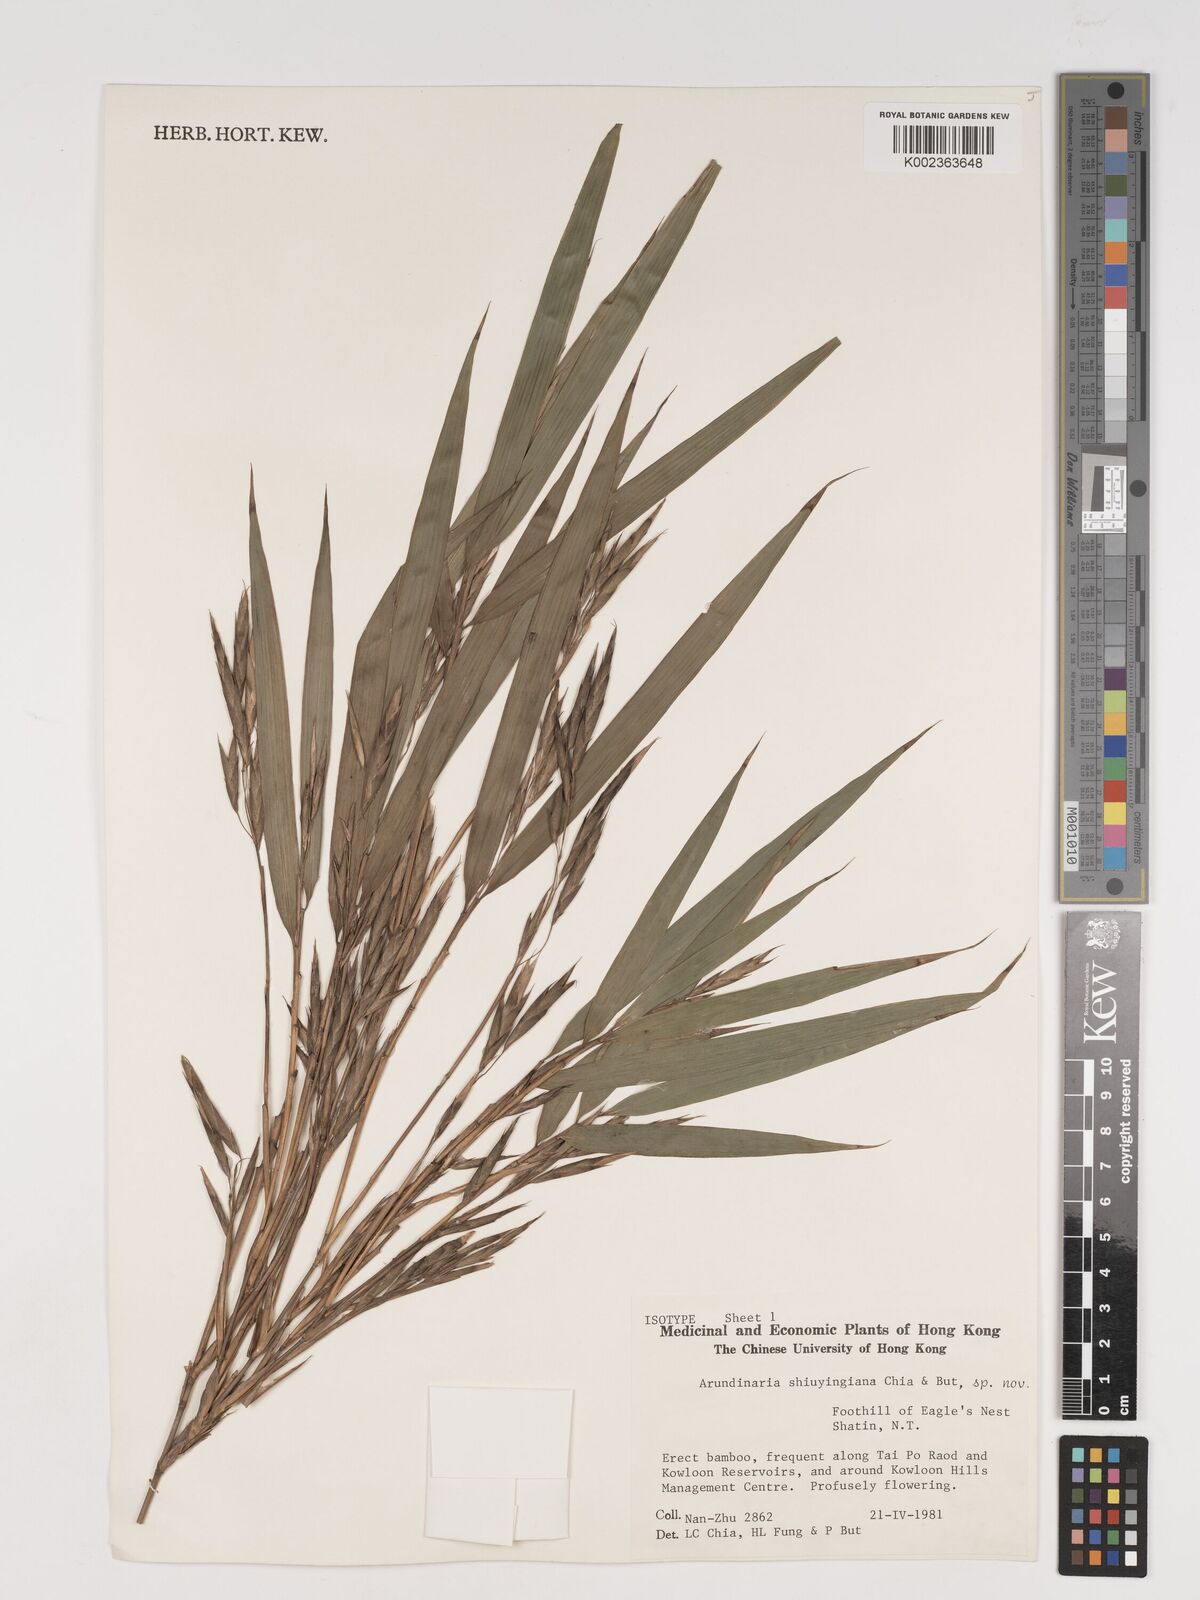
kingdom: Plantae
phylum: Tracheophyta
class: Liliopsida
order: Poales
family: Poaceae
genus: Oligostachyum
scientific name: Oligostachyum shiuyingianum
